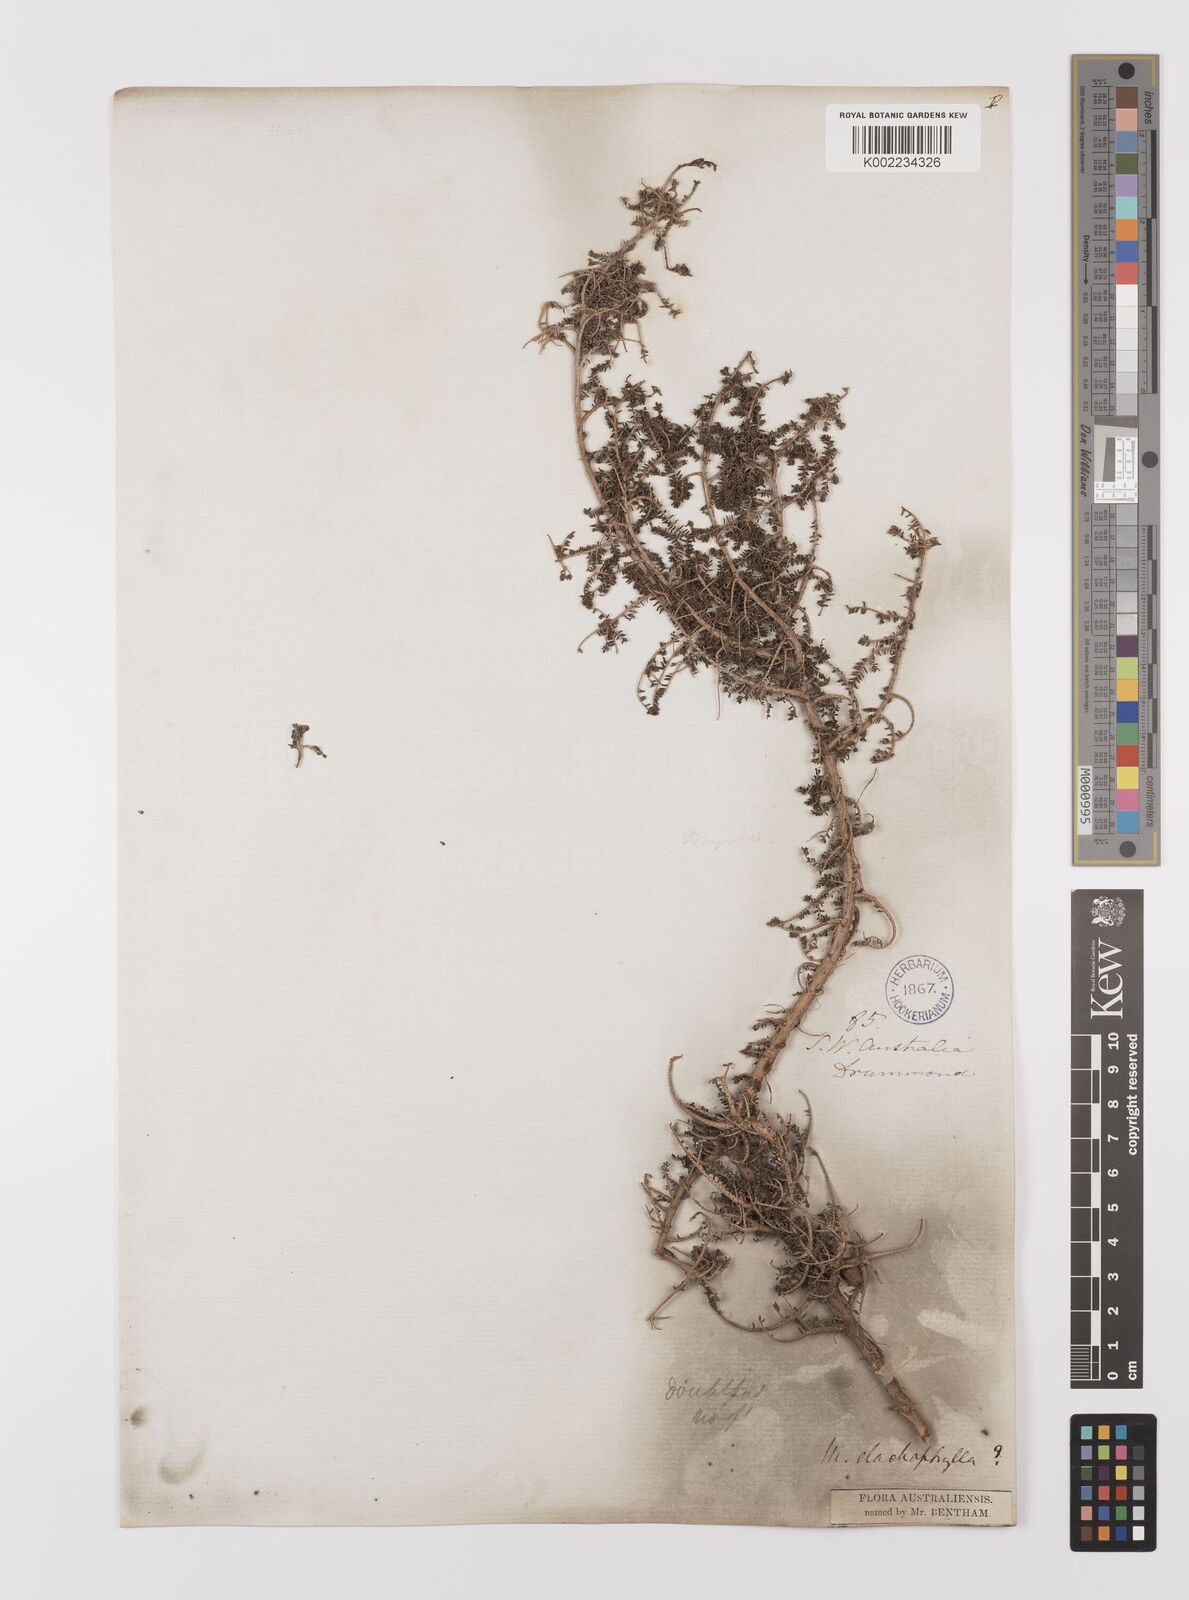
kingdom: Plantae
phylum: Tracheophyta
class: Magnoliopsida
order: Myrtales
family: Myrtaceae
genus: Melaleuca
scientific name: Melaleuca depauperata
